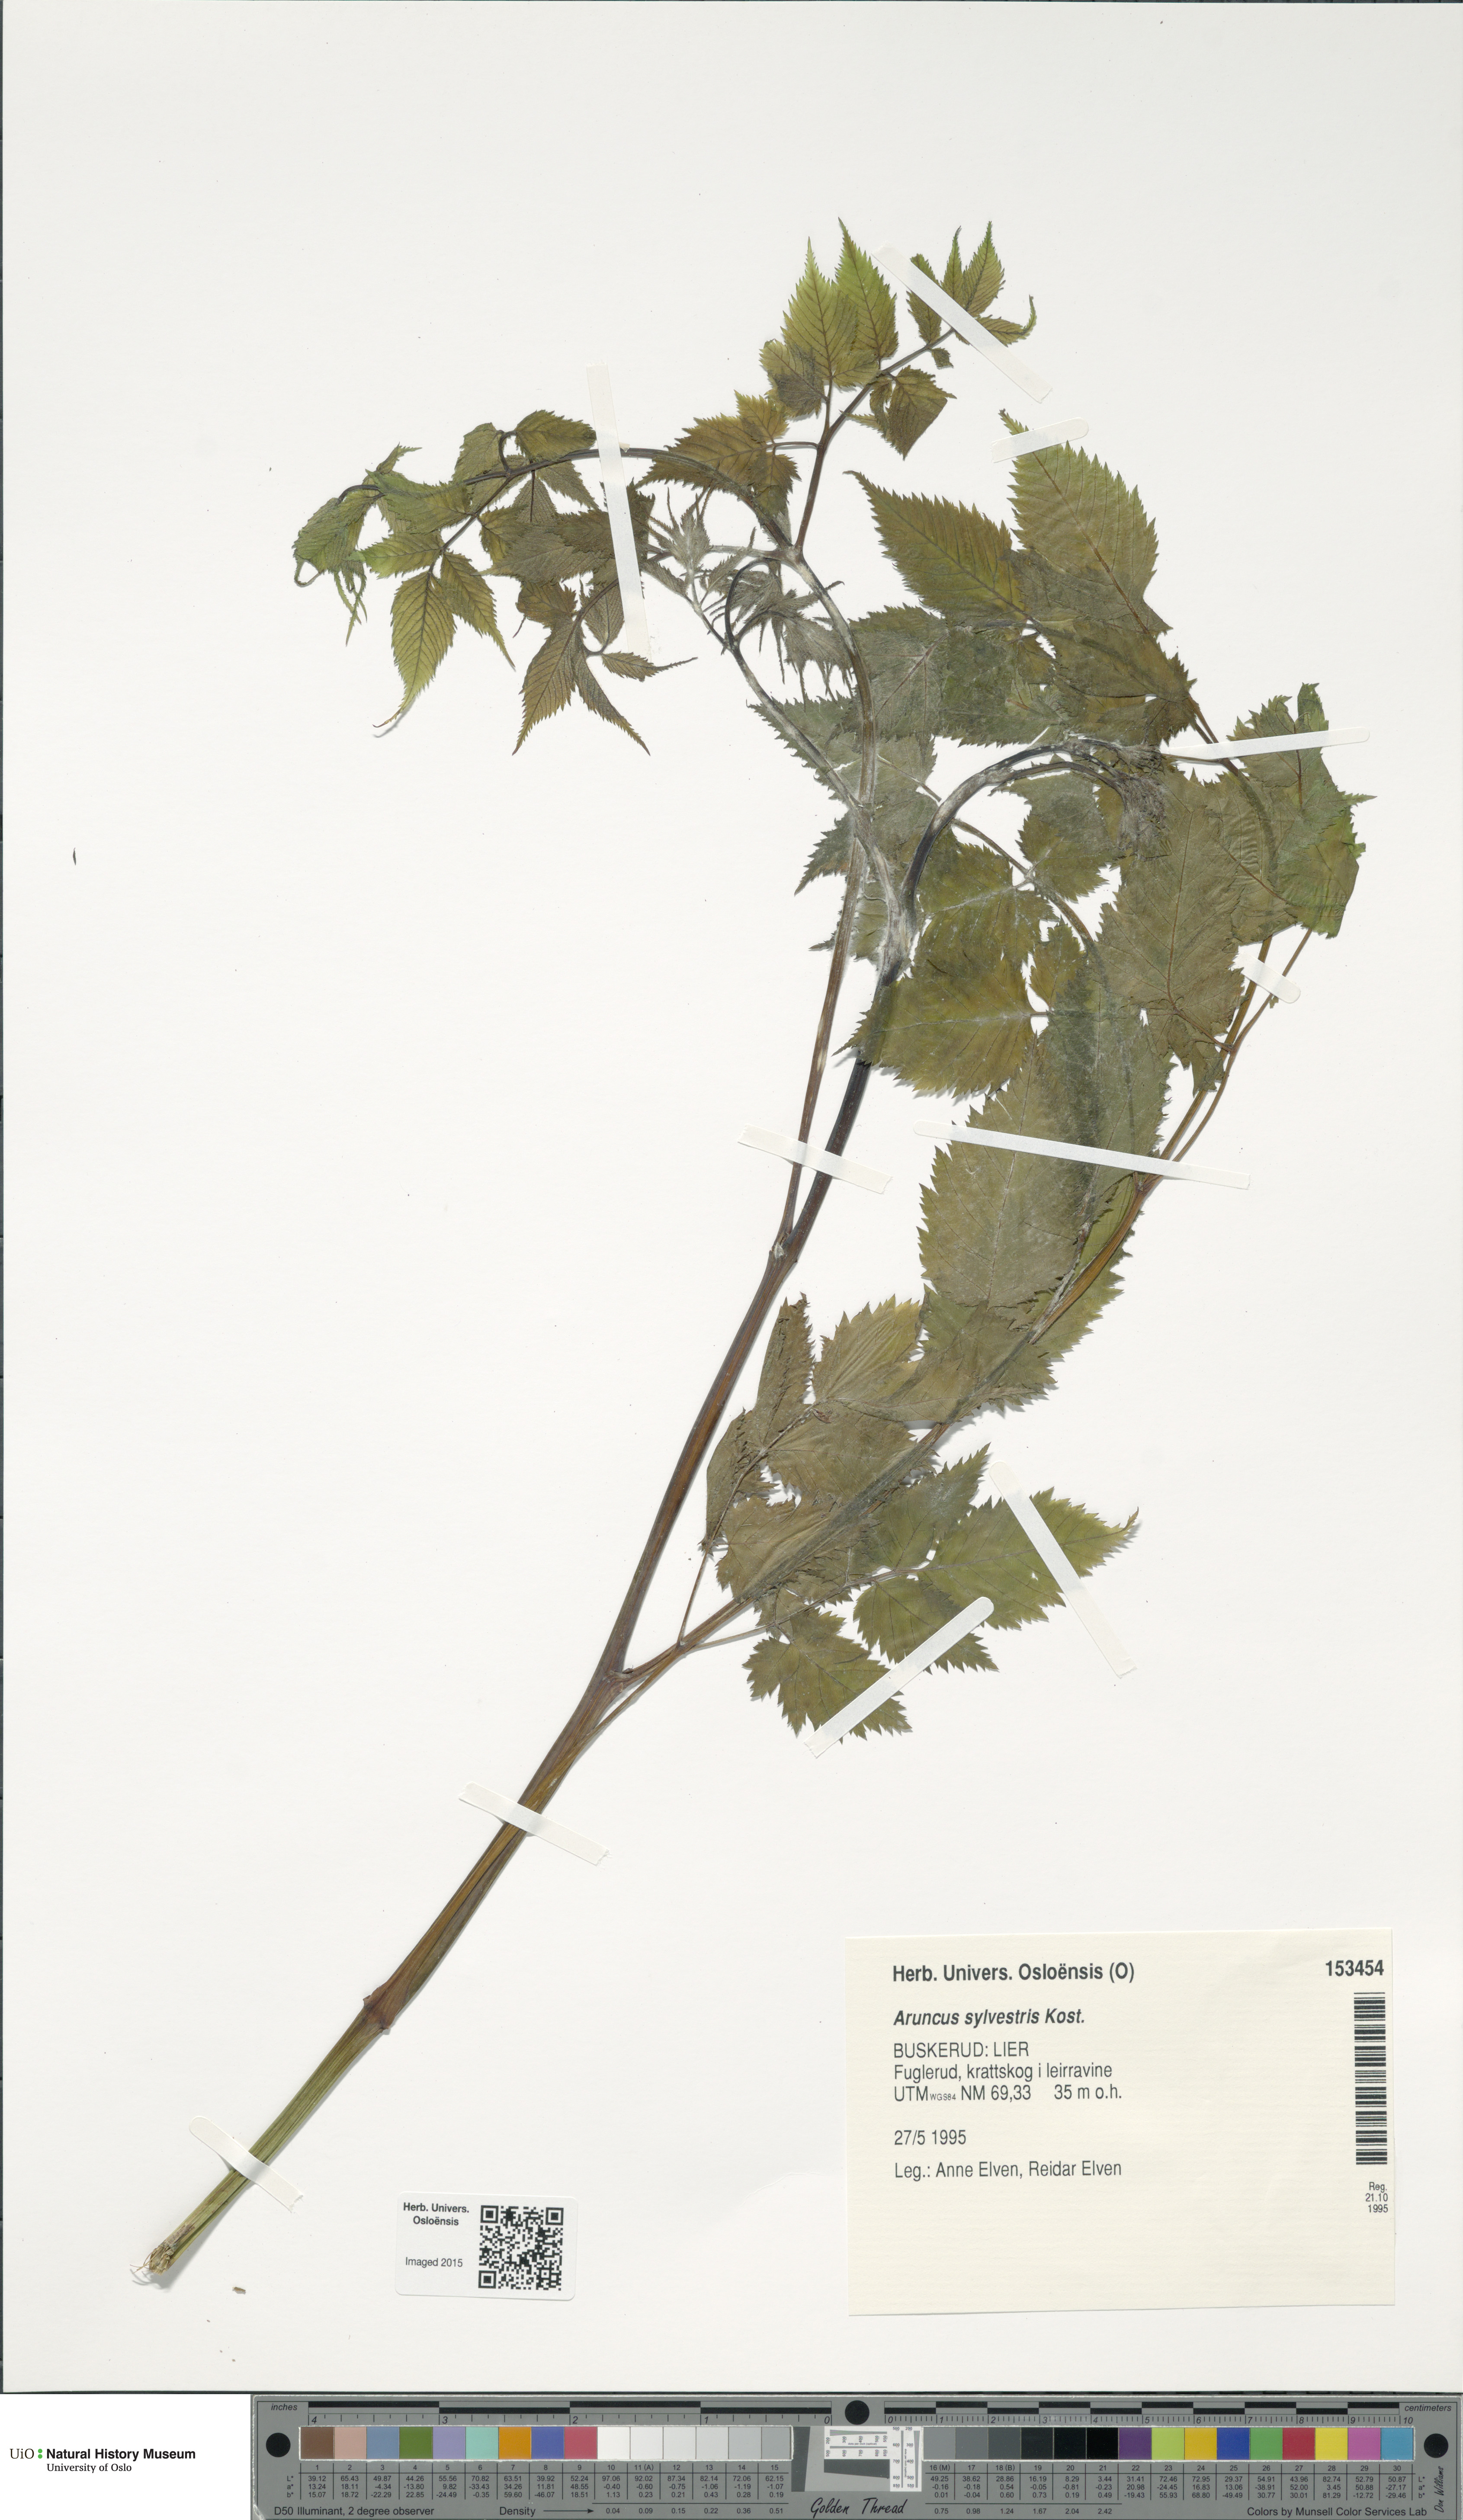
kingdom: Plantae
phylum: Tracheophyta
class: Magnoliopsida
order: Rosales
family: Rosaceae
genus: Aruncus
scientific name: Aruncus dioicus
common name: Buck's-beard
